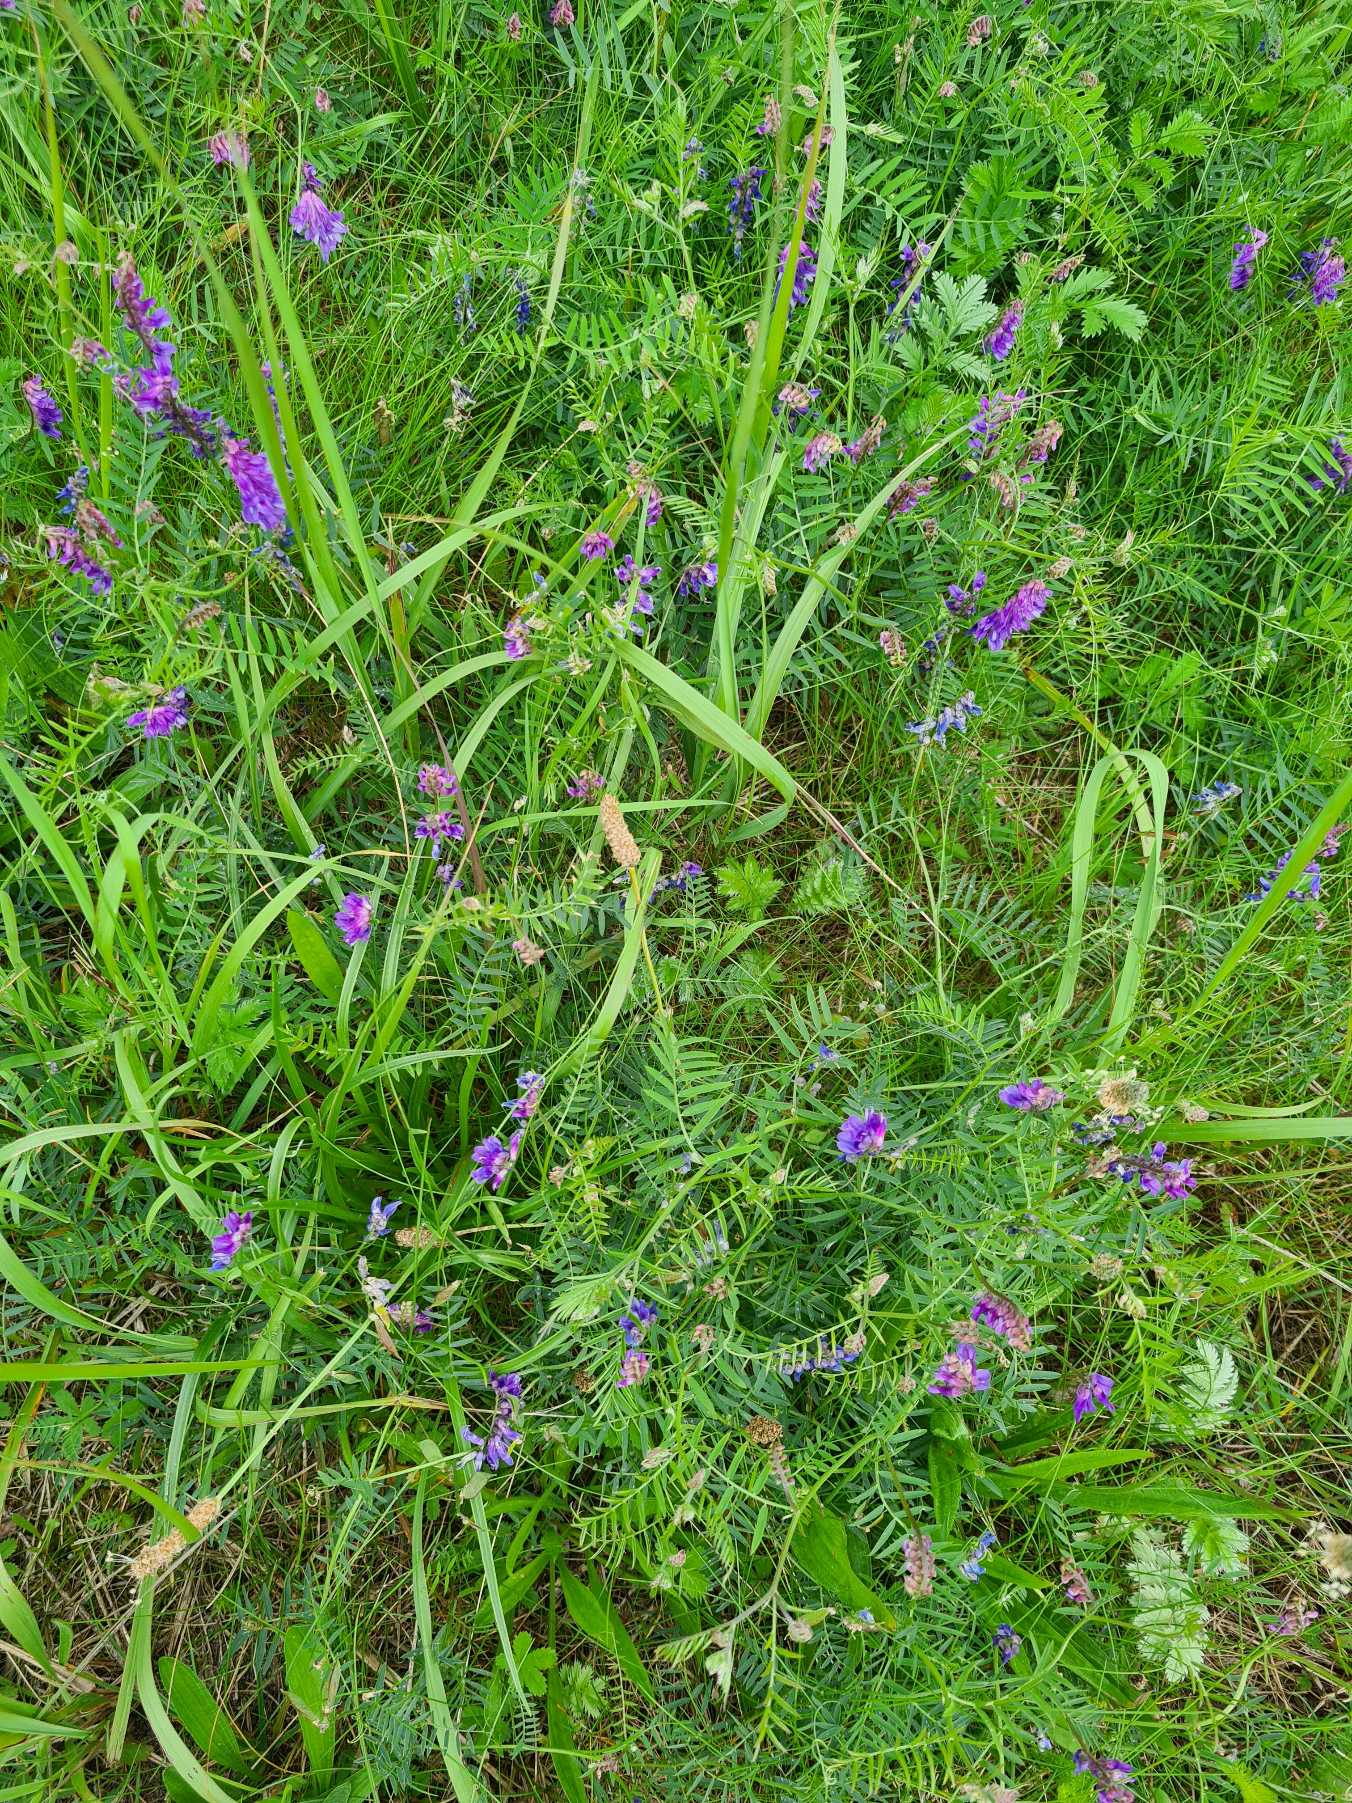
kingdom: Plantae
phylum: Tracheophyta
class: Magnoliopsida
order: Fabales
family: Fabaceae
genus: Vicia
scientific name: Vicia cracca
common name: Muse-vikke
